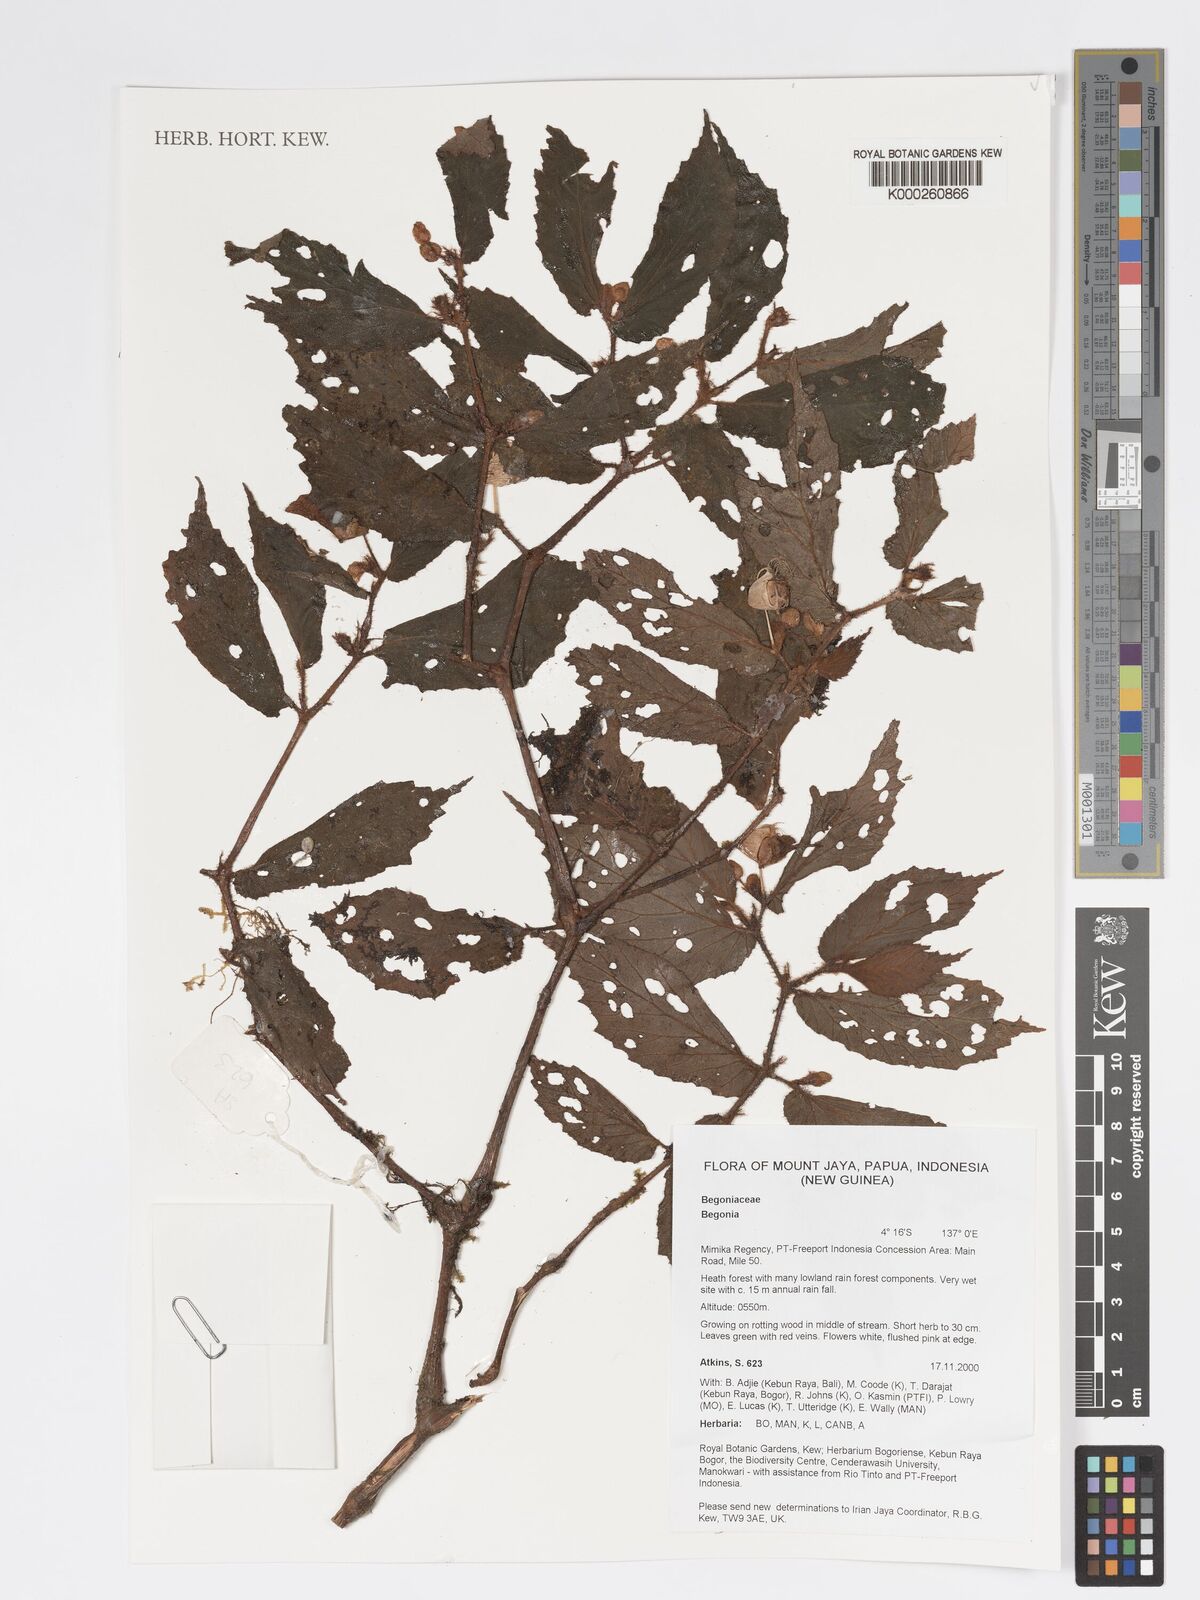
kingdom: Plantae
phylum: Tracheophyta
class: Magnoliopsida
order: Cucurbitales
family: Begoniaceae
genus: Begonia
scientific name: Begonia
